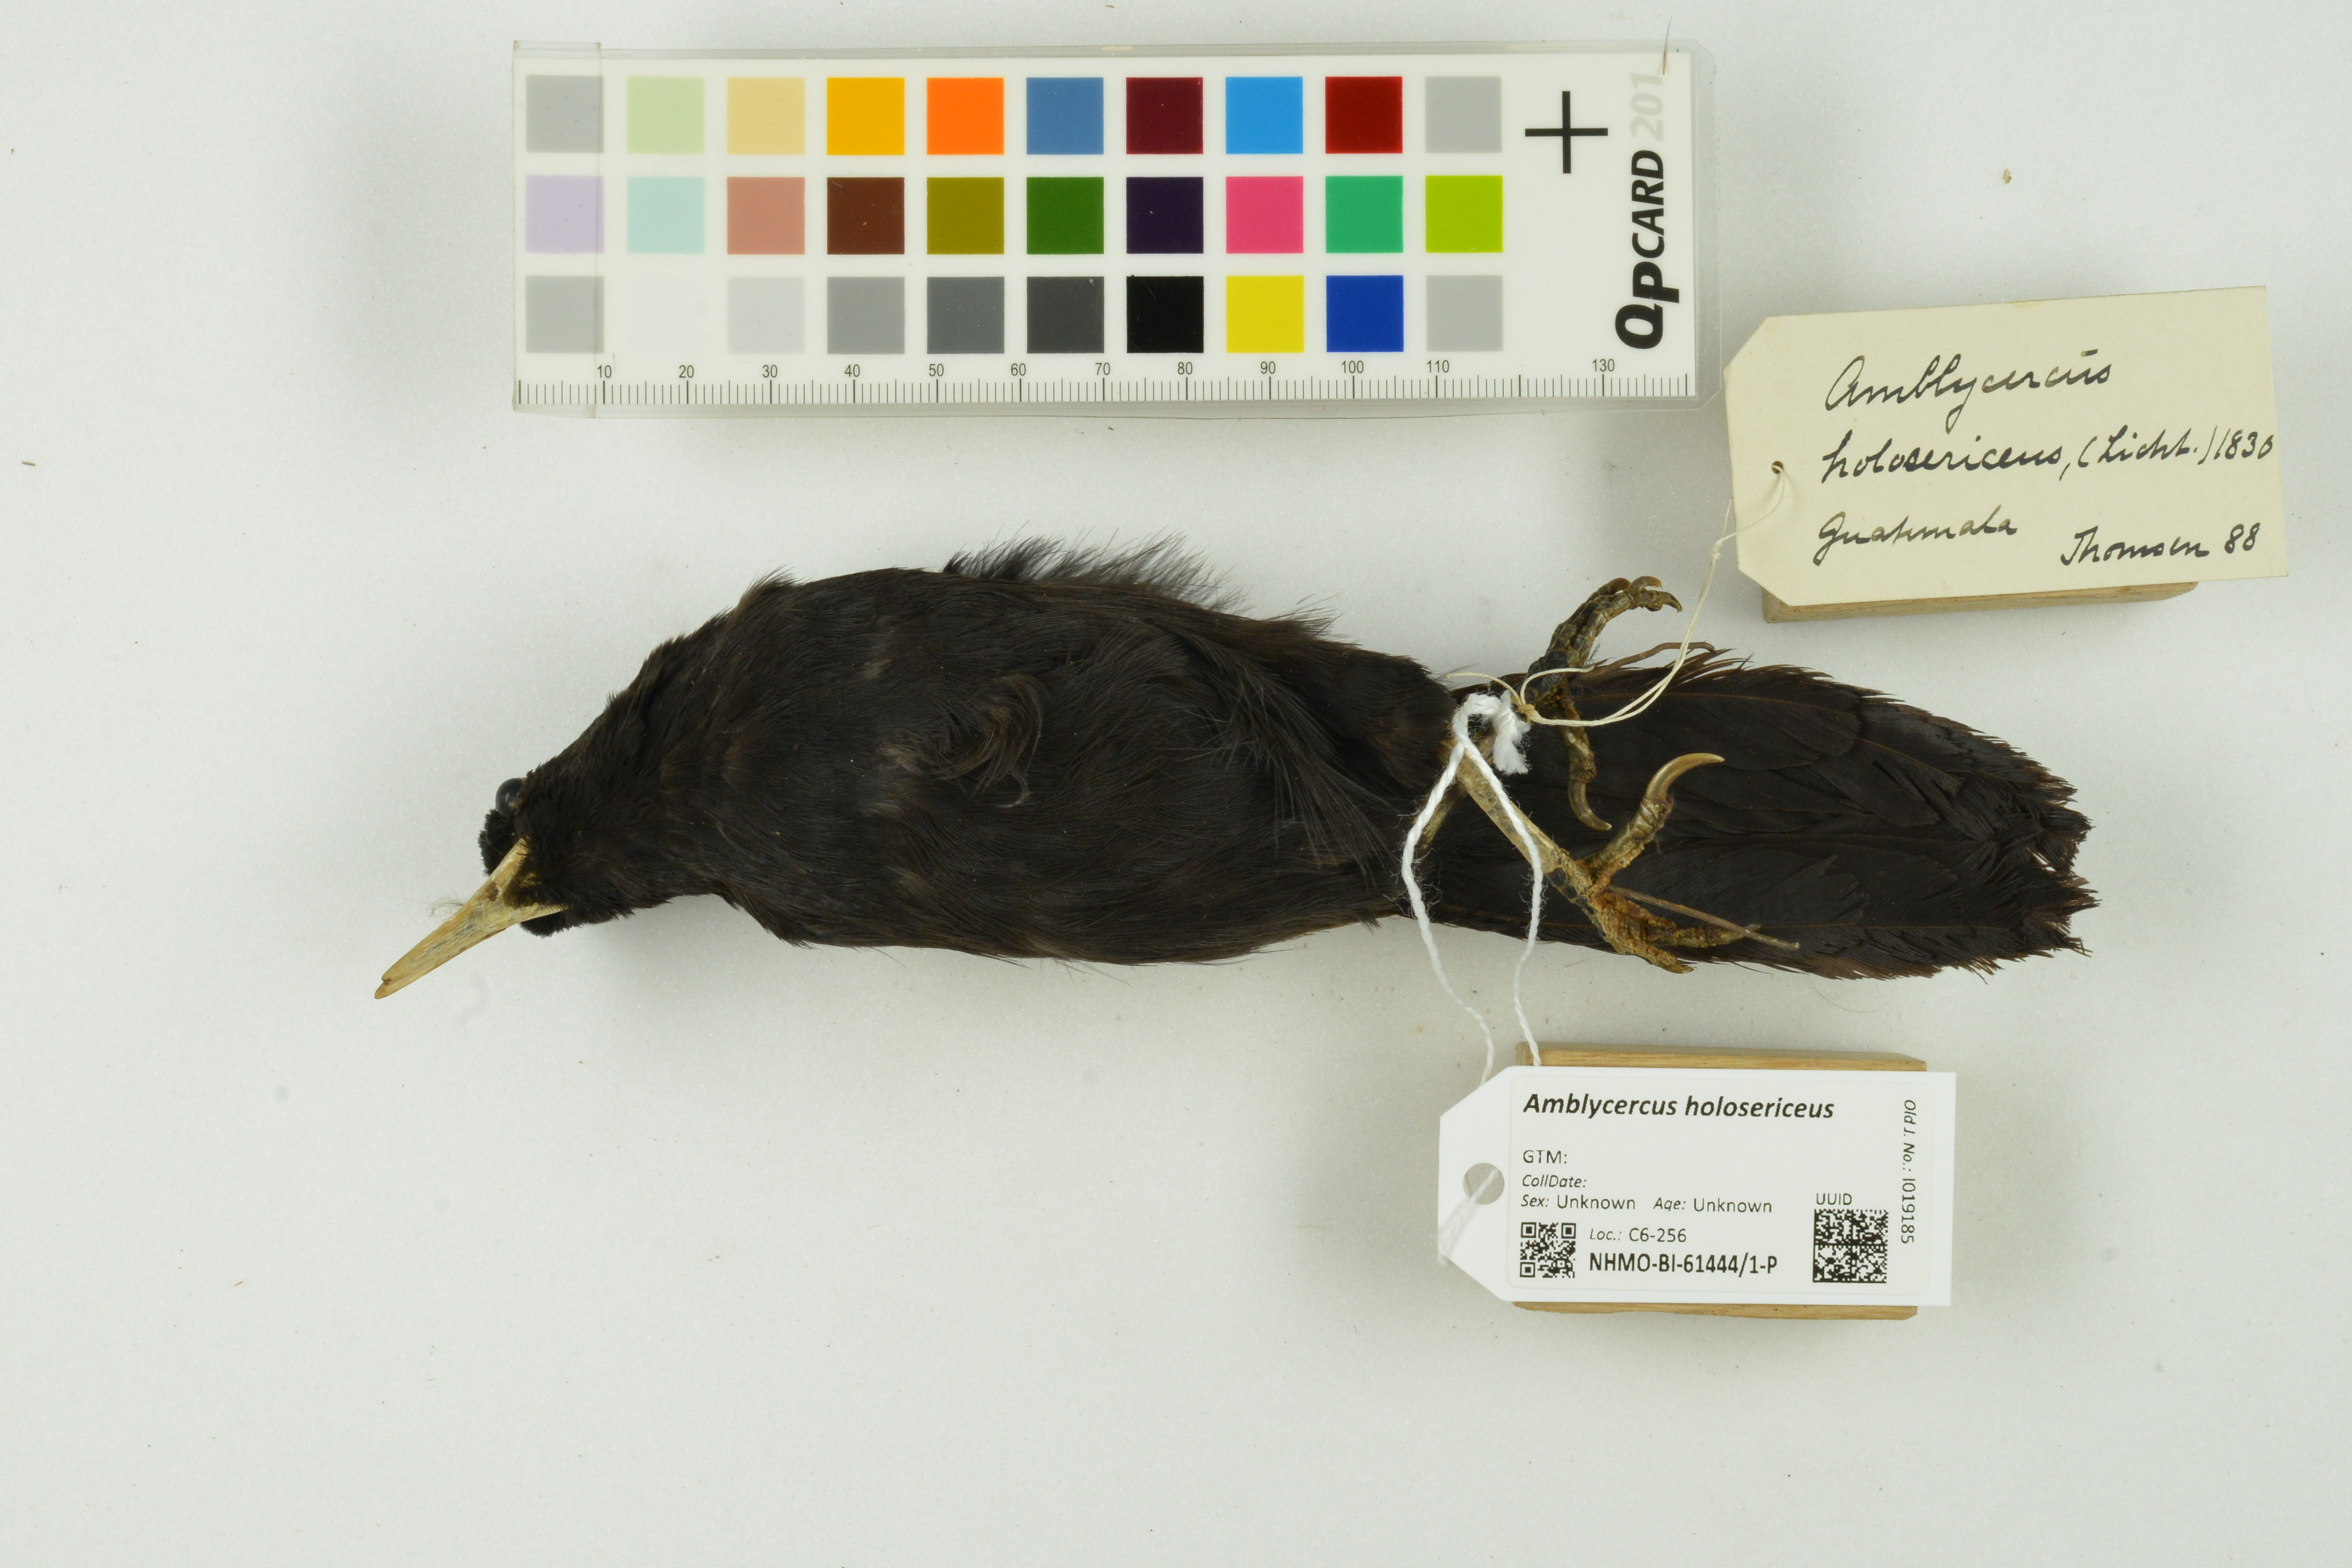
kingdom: Animalia
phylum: Chordata
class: Aves
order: Passeriformes
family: Icteridae
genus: Amblycercus
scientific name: Amblycercus holosericeus
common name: Yellow-billed cacique
